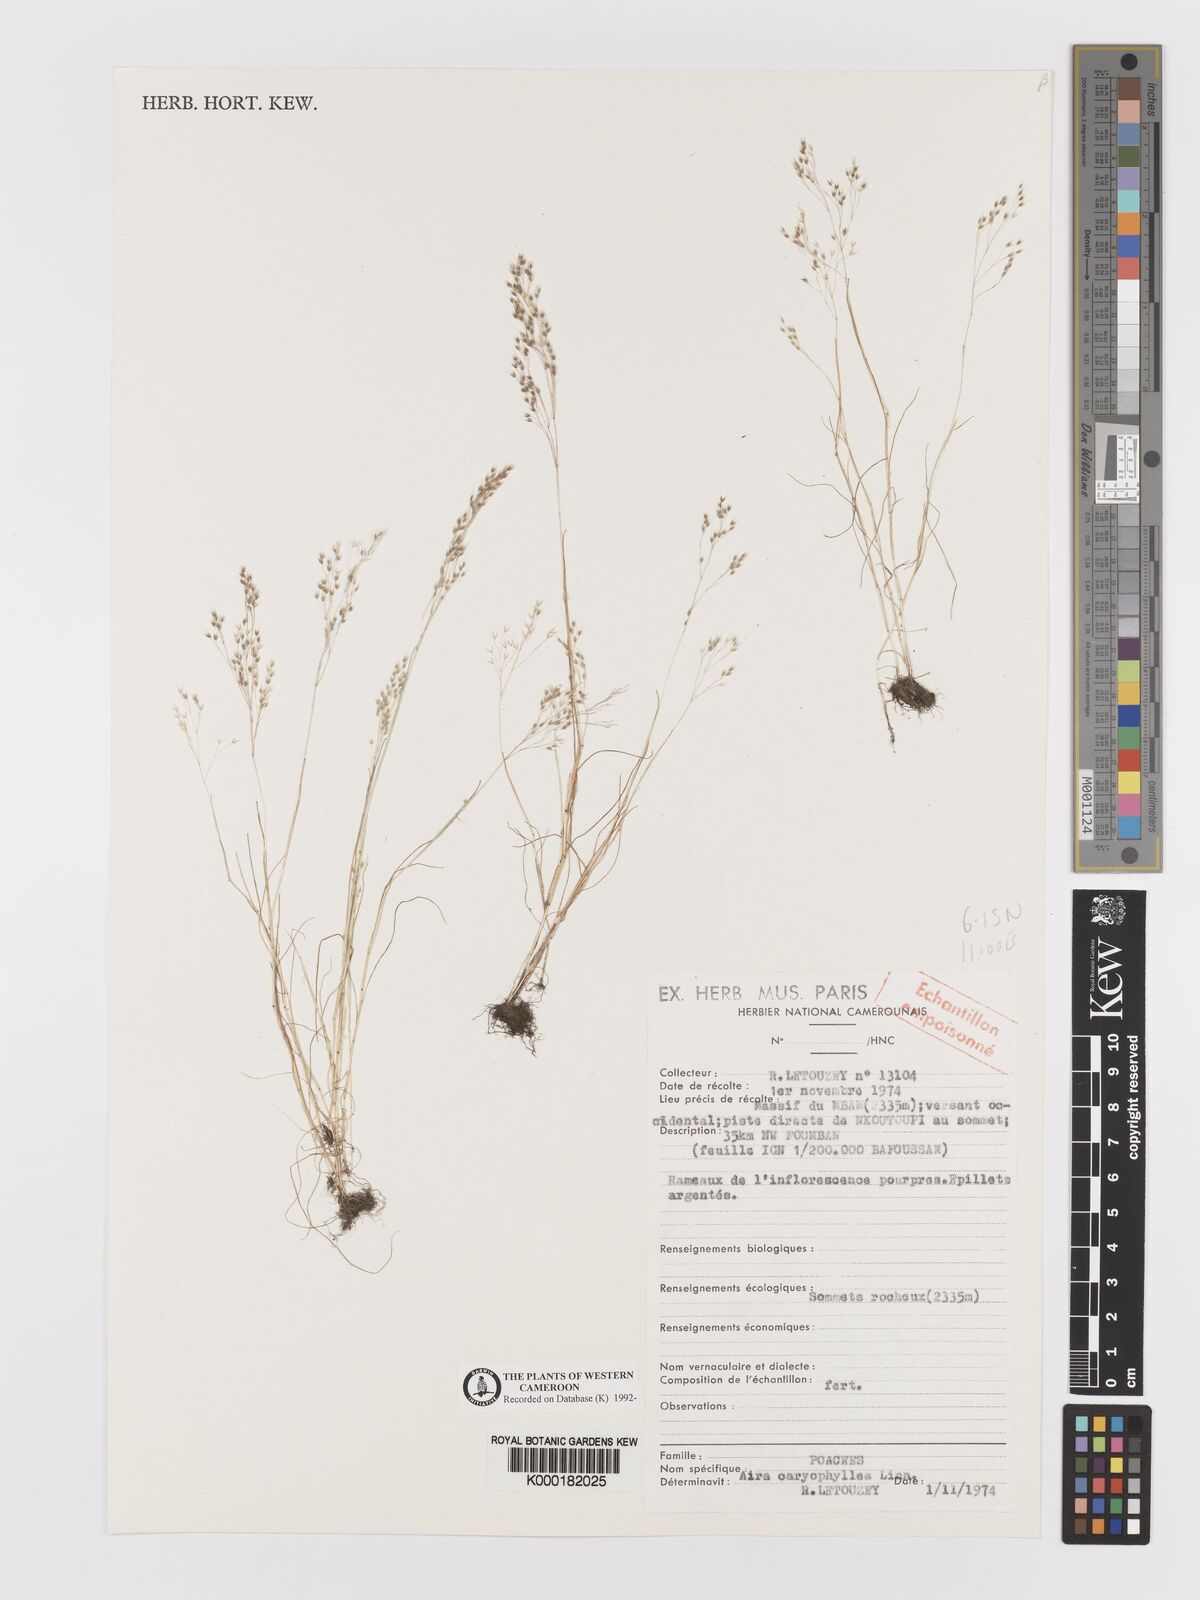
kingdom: Plantae
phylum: Tracheophyta
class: Liliopsida
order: Poales
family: Poaceae
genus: Aira
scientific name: Aira caryophyllea
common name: Silver hairgrass
